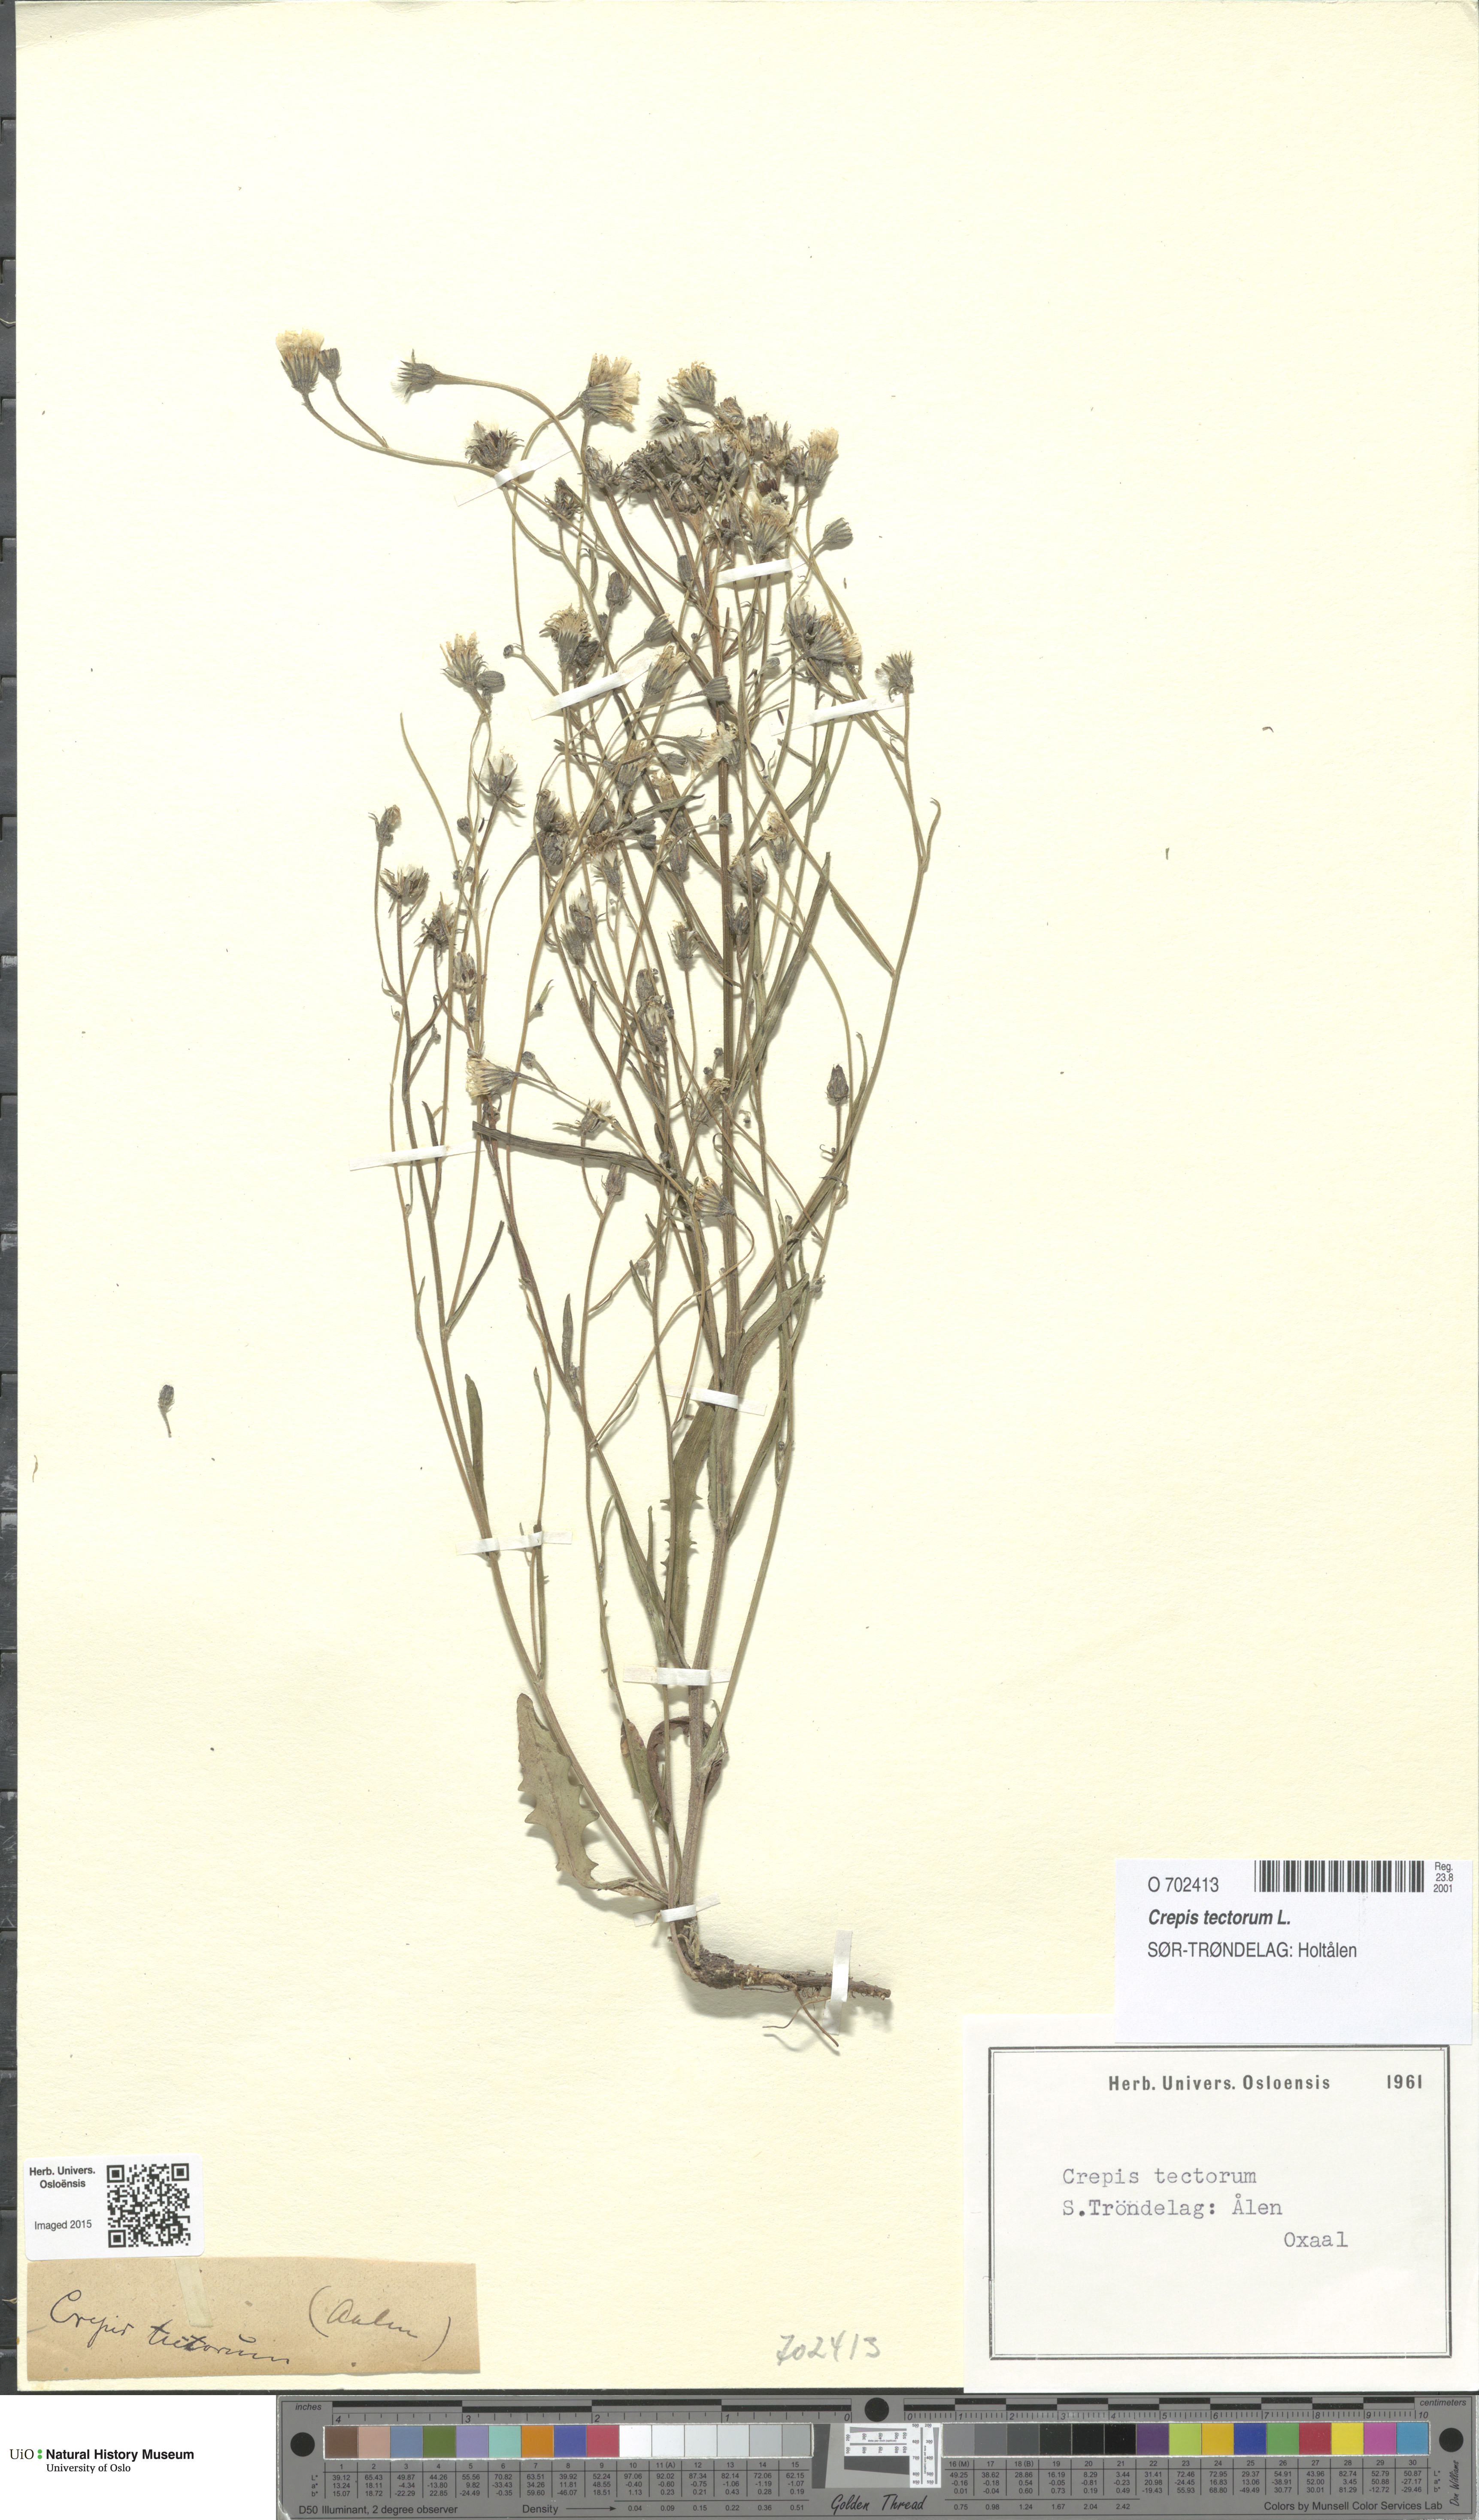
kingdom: Plantae
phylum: Tracheophyta
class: Magnoliopsida
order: Asterales
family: Asteraceae
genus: Crepis
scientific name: Crepis tectorum
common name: Narrow-leaved hawk's-beard
